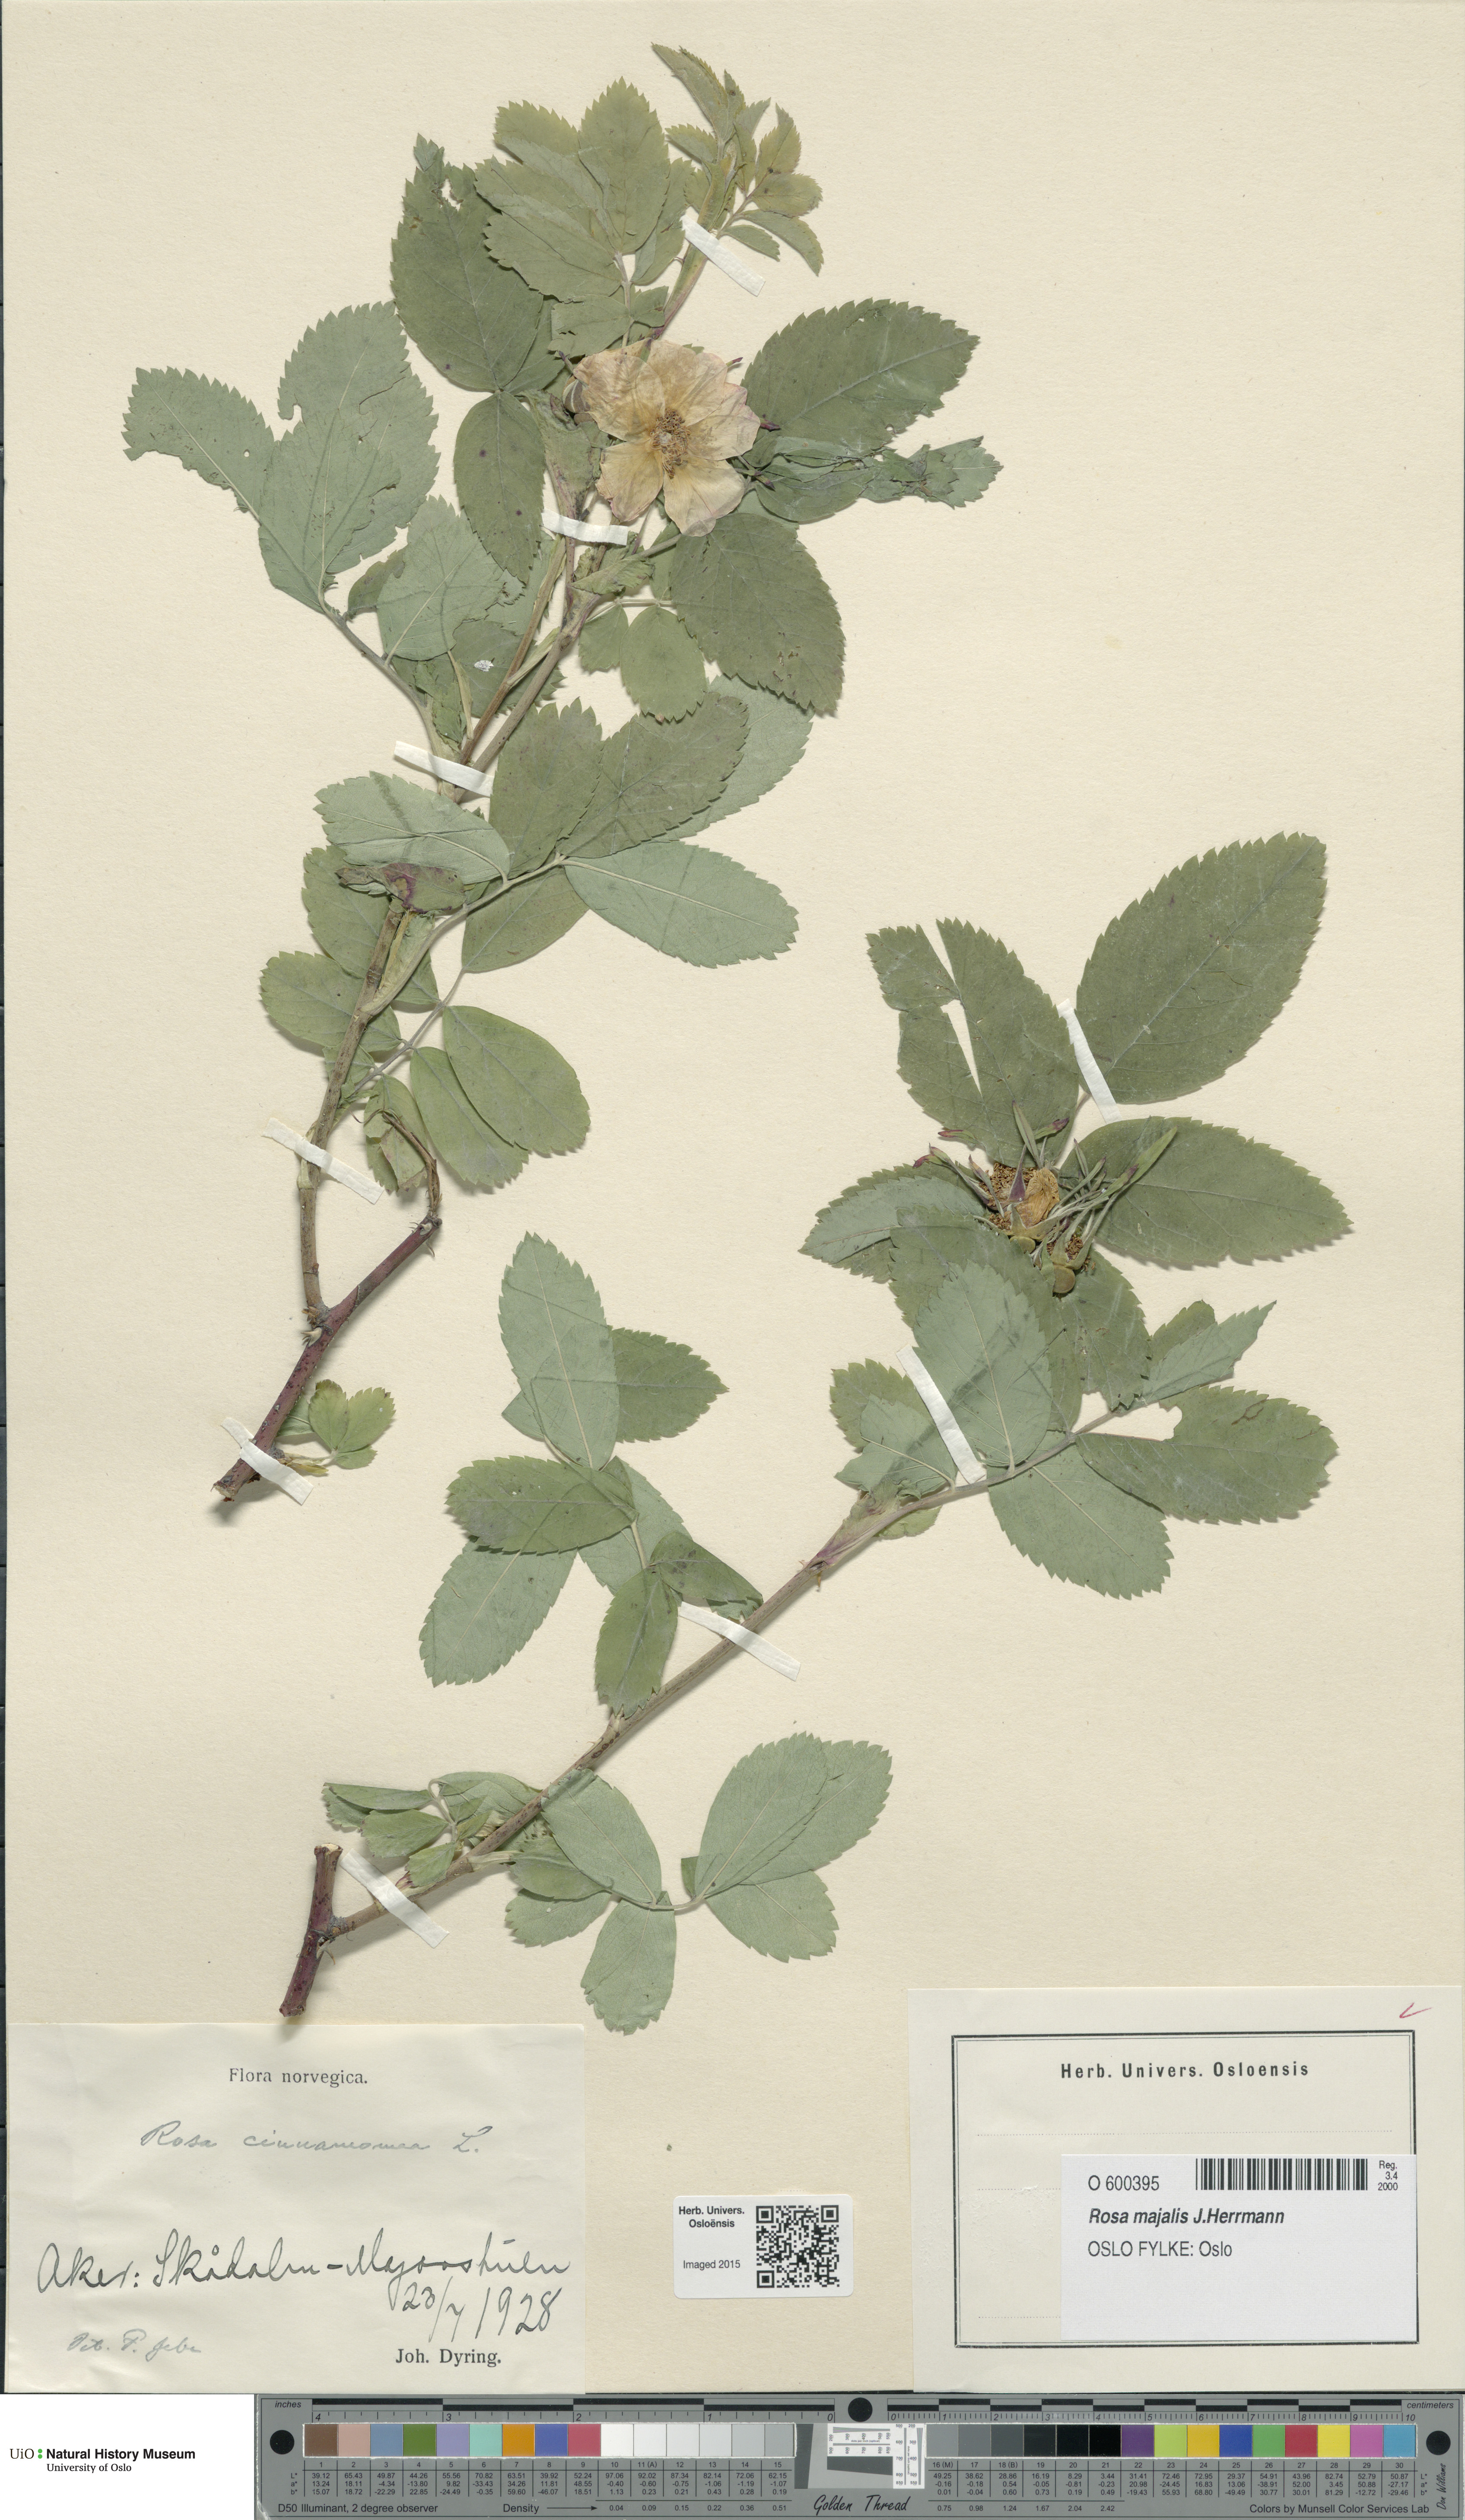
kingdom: Plantae
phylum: Tracheophyta
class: Magnoliopsida
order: Rosales
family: Rosaceae
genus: Rosa
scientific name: Rosa pendulina
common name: Alpine rose
